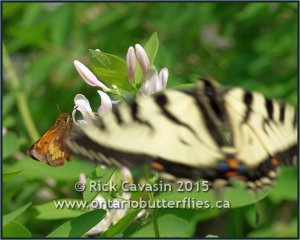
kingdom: Animalia
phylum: Arthropoda
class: Insecta
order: Lepidoptera
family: Hesperiidae
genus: Lon
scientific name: Lon hobomok
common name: Hobomok Skipper
